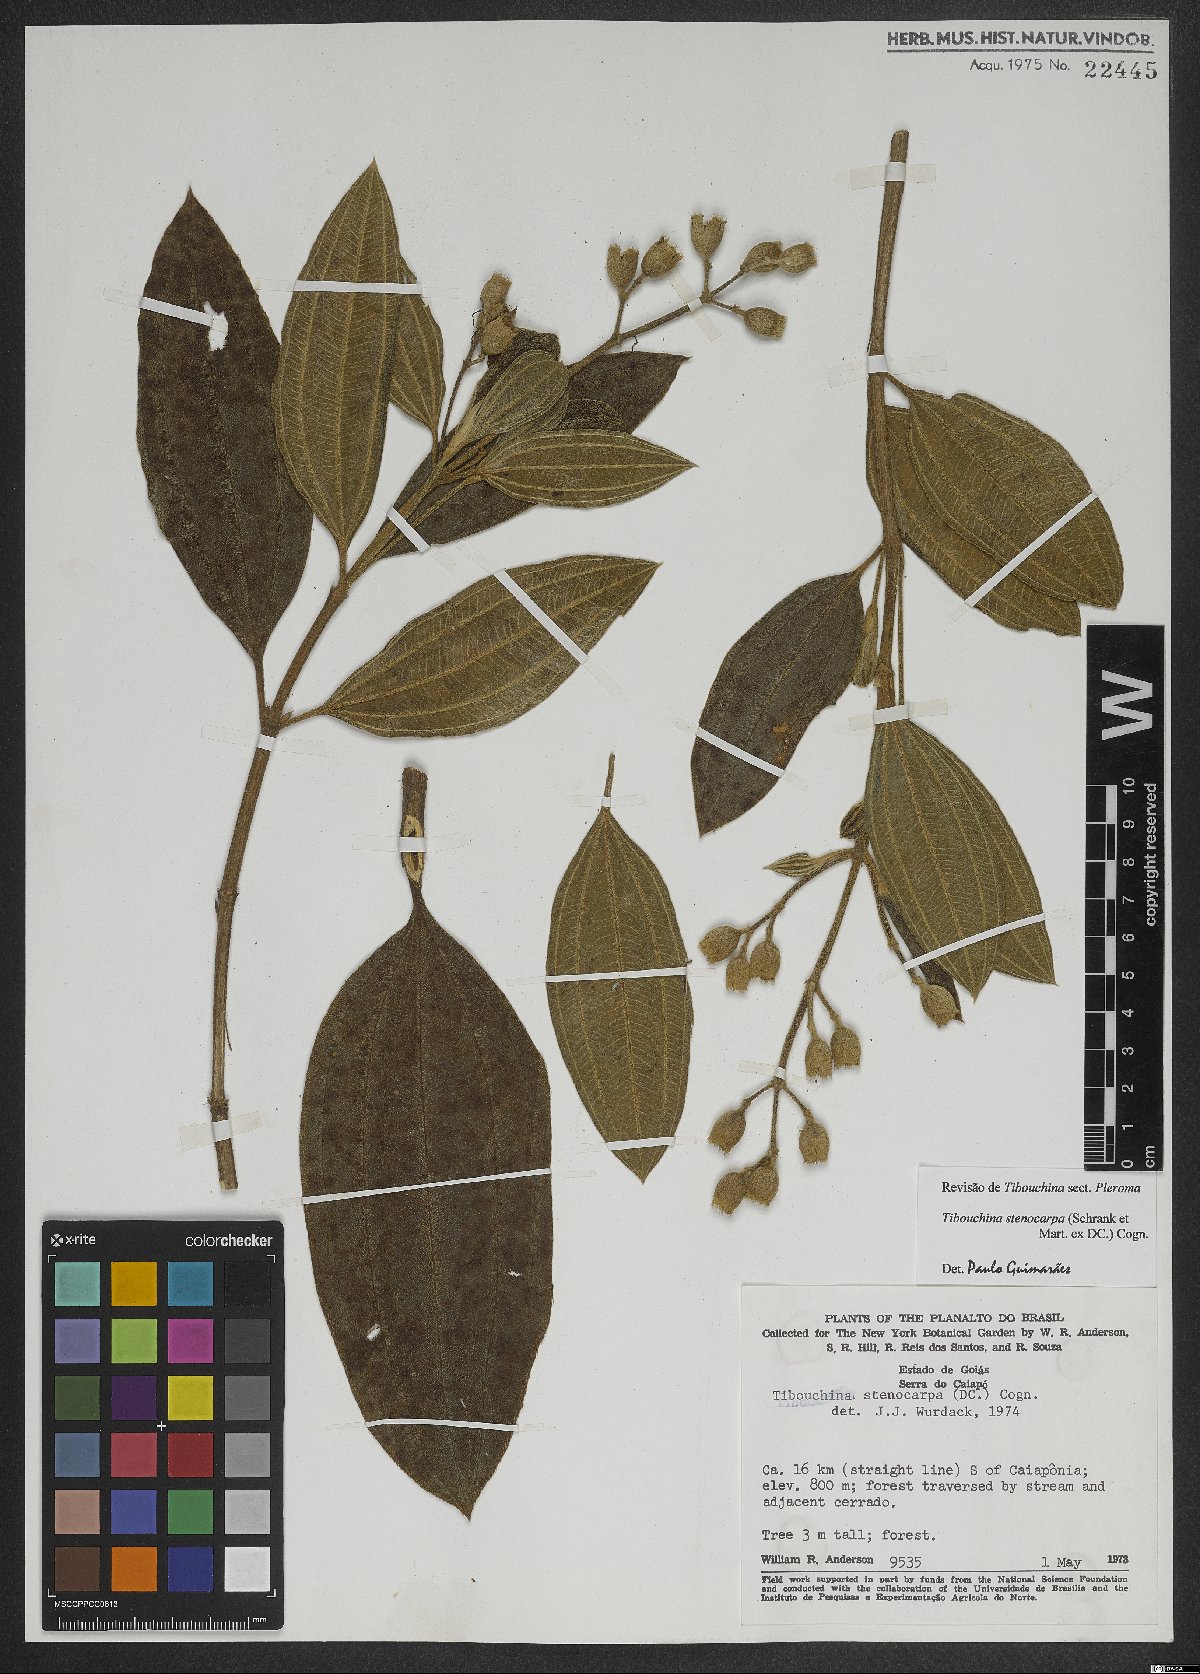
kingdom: Plantae
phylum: Tracheophyta
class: Magnoliopsida
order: Myrtales
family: Melastomataceae
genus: Pleroma
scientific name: Pleroma stenocarpum
